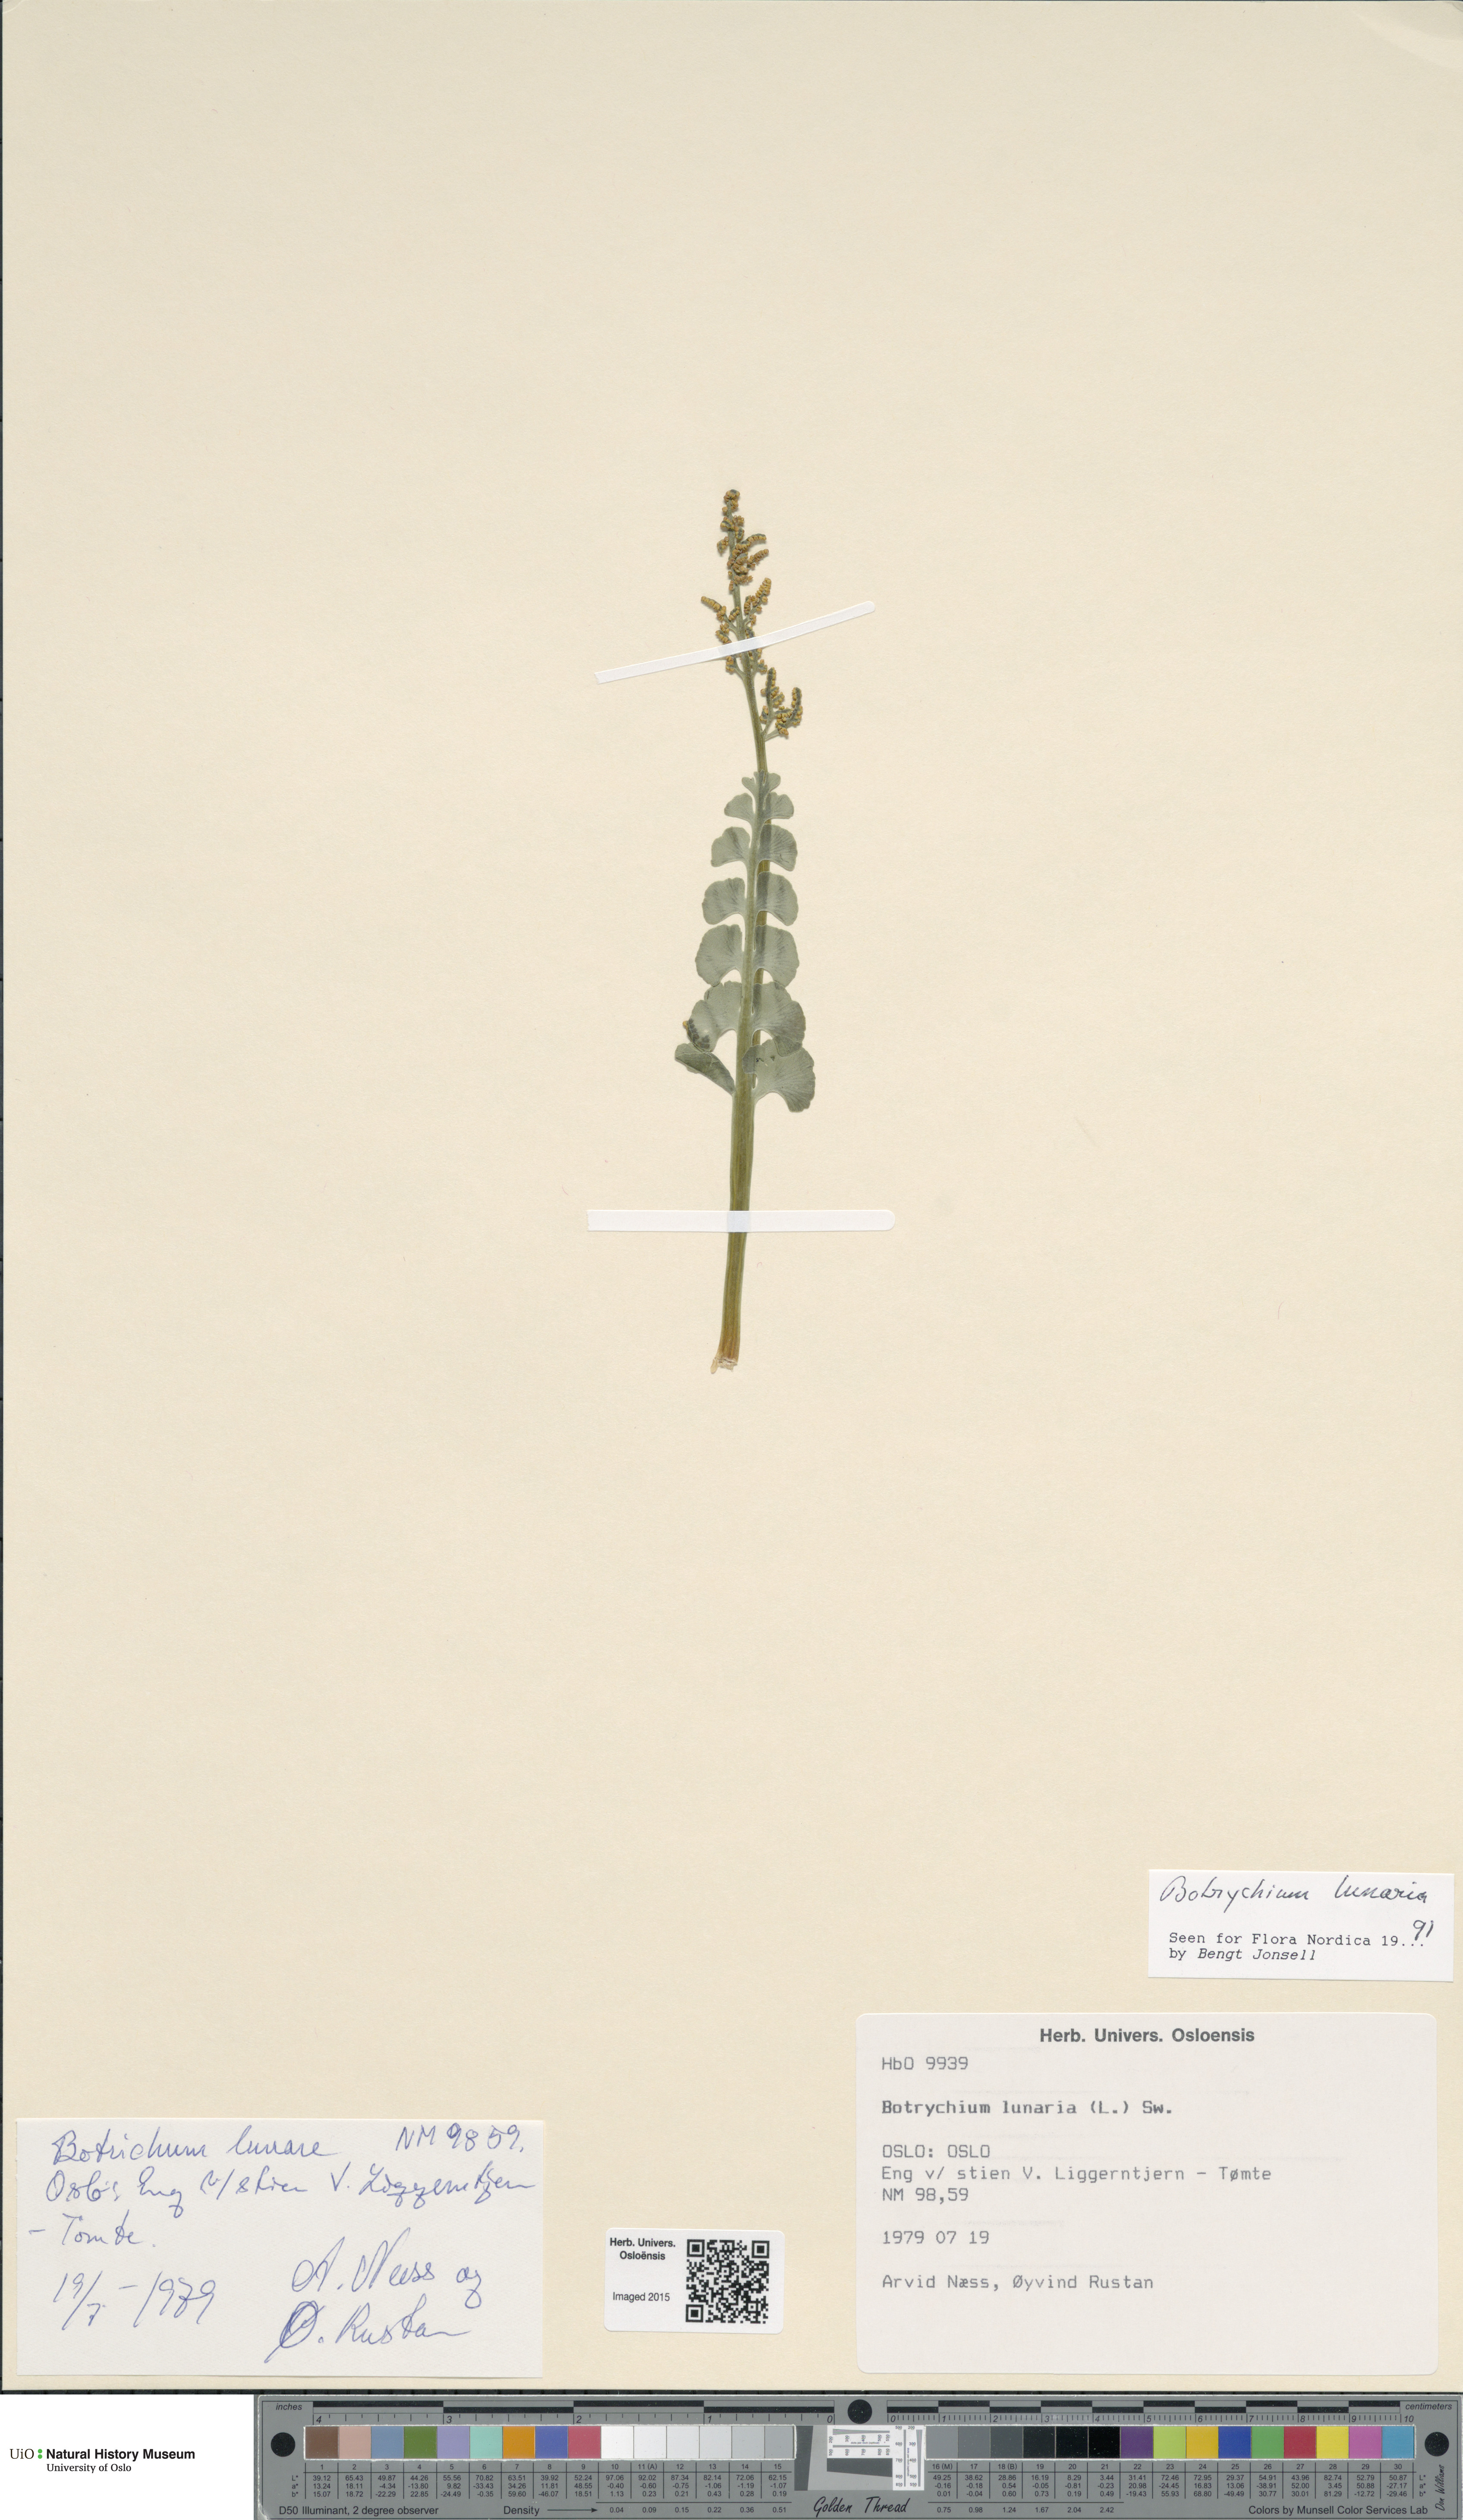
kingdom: Plantae
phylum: Tracheophyta
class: Polypodiopsida
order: Ophioglossales
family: Ophioglossaceae
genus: Botrychium
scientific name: Botrychium lunaria
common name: Moonwort
